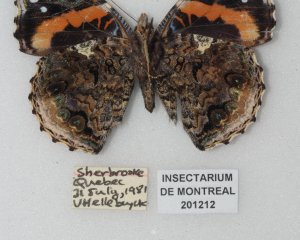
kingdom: Animalia
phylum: Arthropoda
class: Insecta
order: Lepidoptera
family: Nymphalidae
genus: Vanessa
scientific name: Vanessa atalanta
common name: Red Admiral
